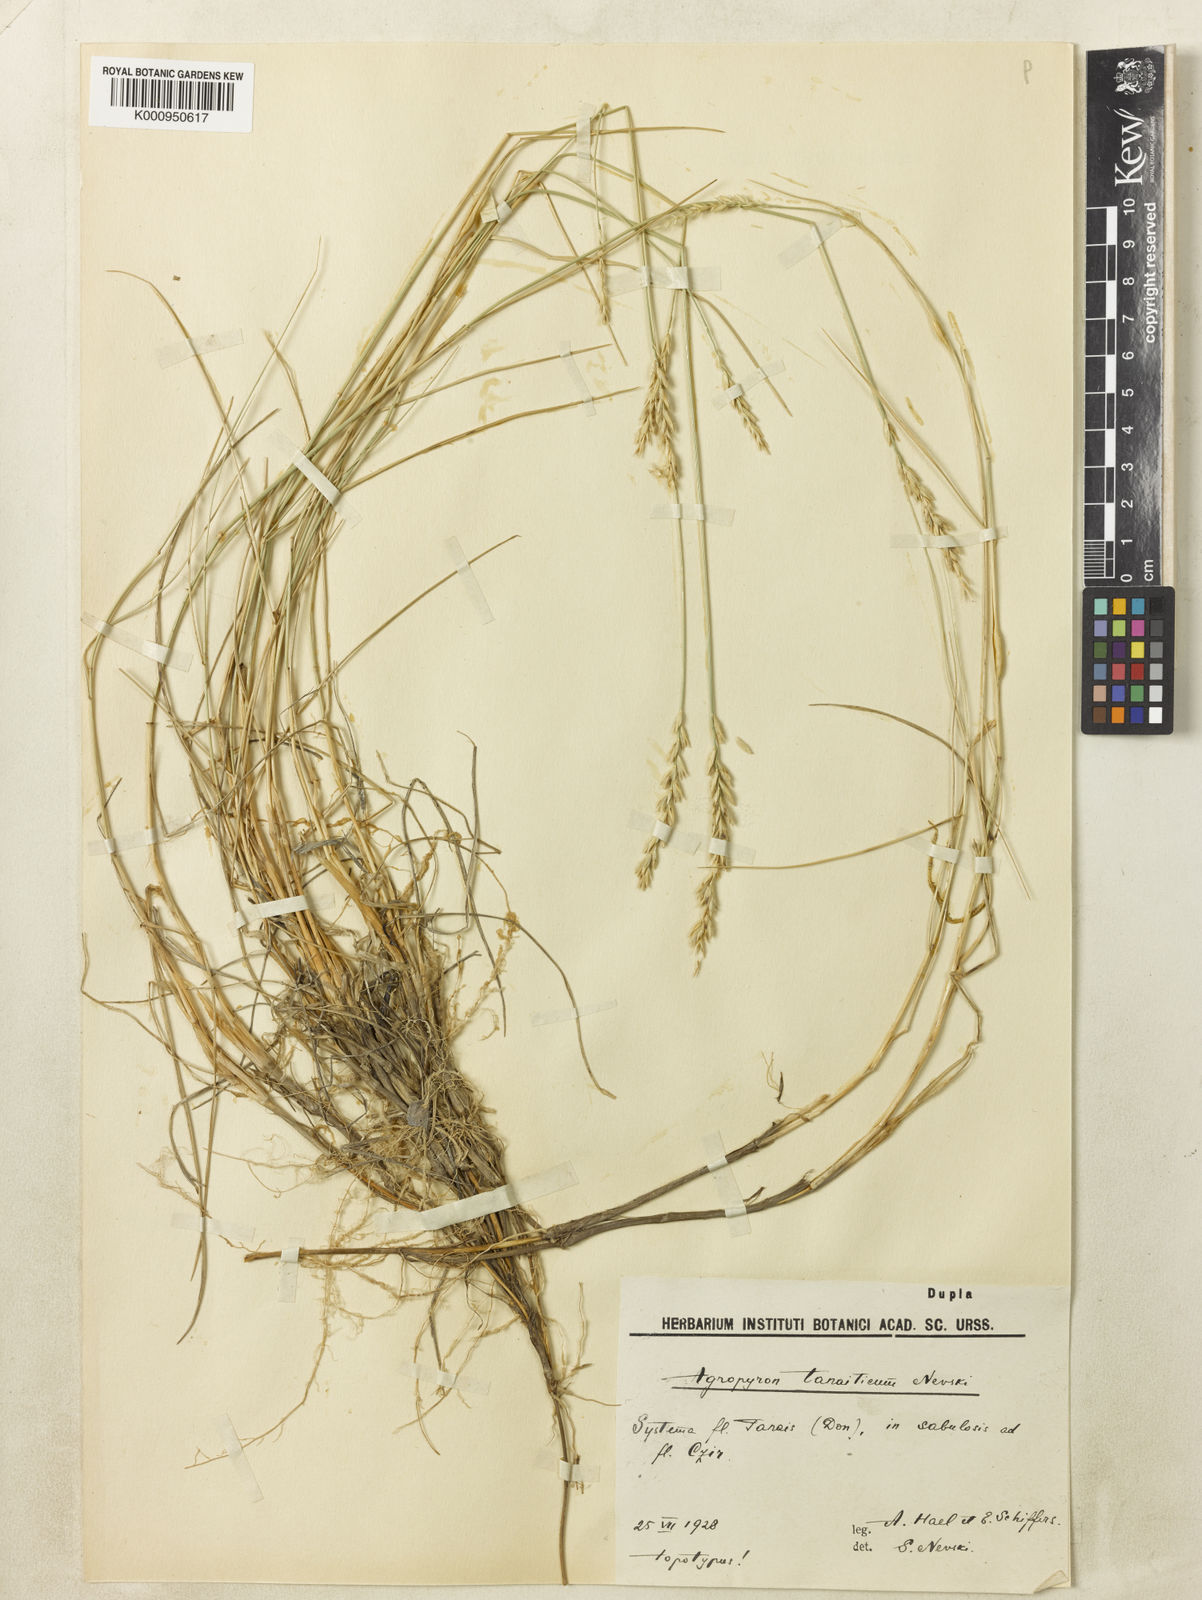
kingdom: Plantae
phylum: Tracheophyta
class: Liliopsida
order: Poales
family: Poaceae
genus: Agropyron
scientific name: Agropyron tanaiticum
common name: Don wheatgrass
